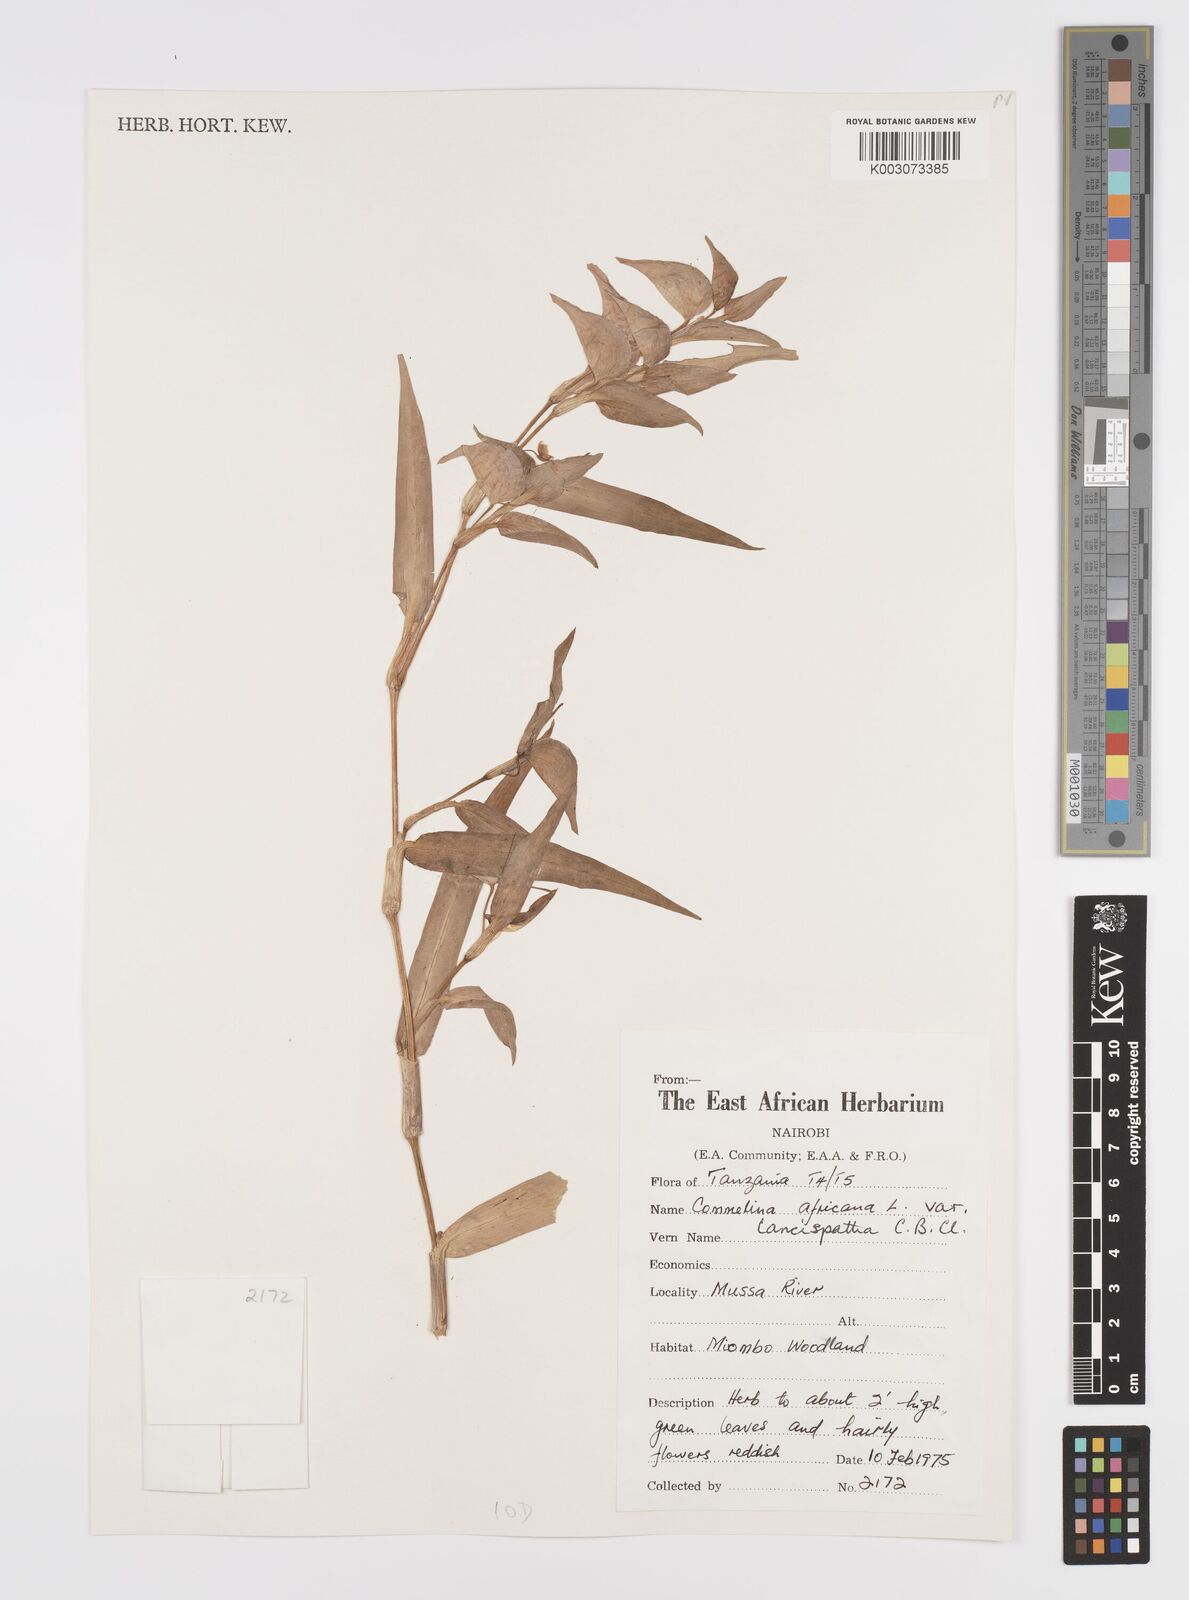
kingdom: Plantae
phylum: Tracheophyta
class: Liliopsida
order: Commelinales
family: Commelinaceae
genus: Commelina
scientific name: Commelina africana
